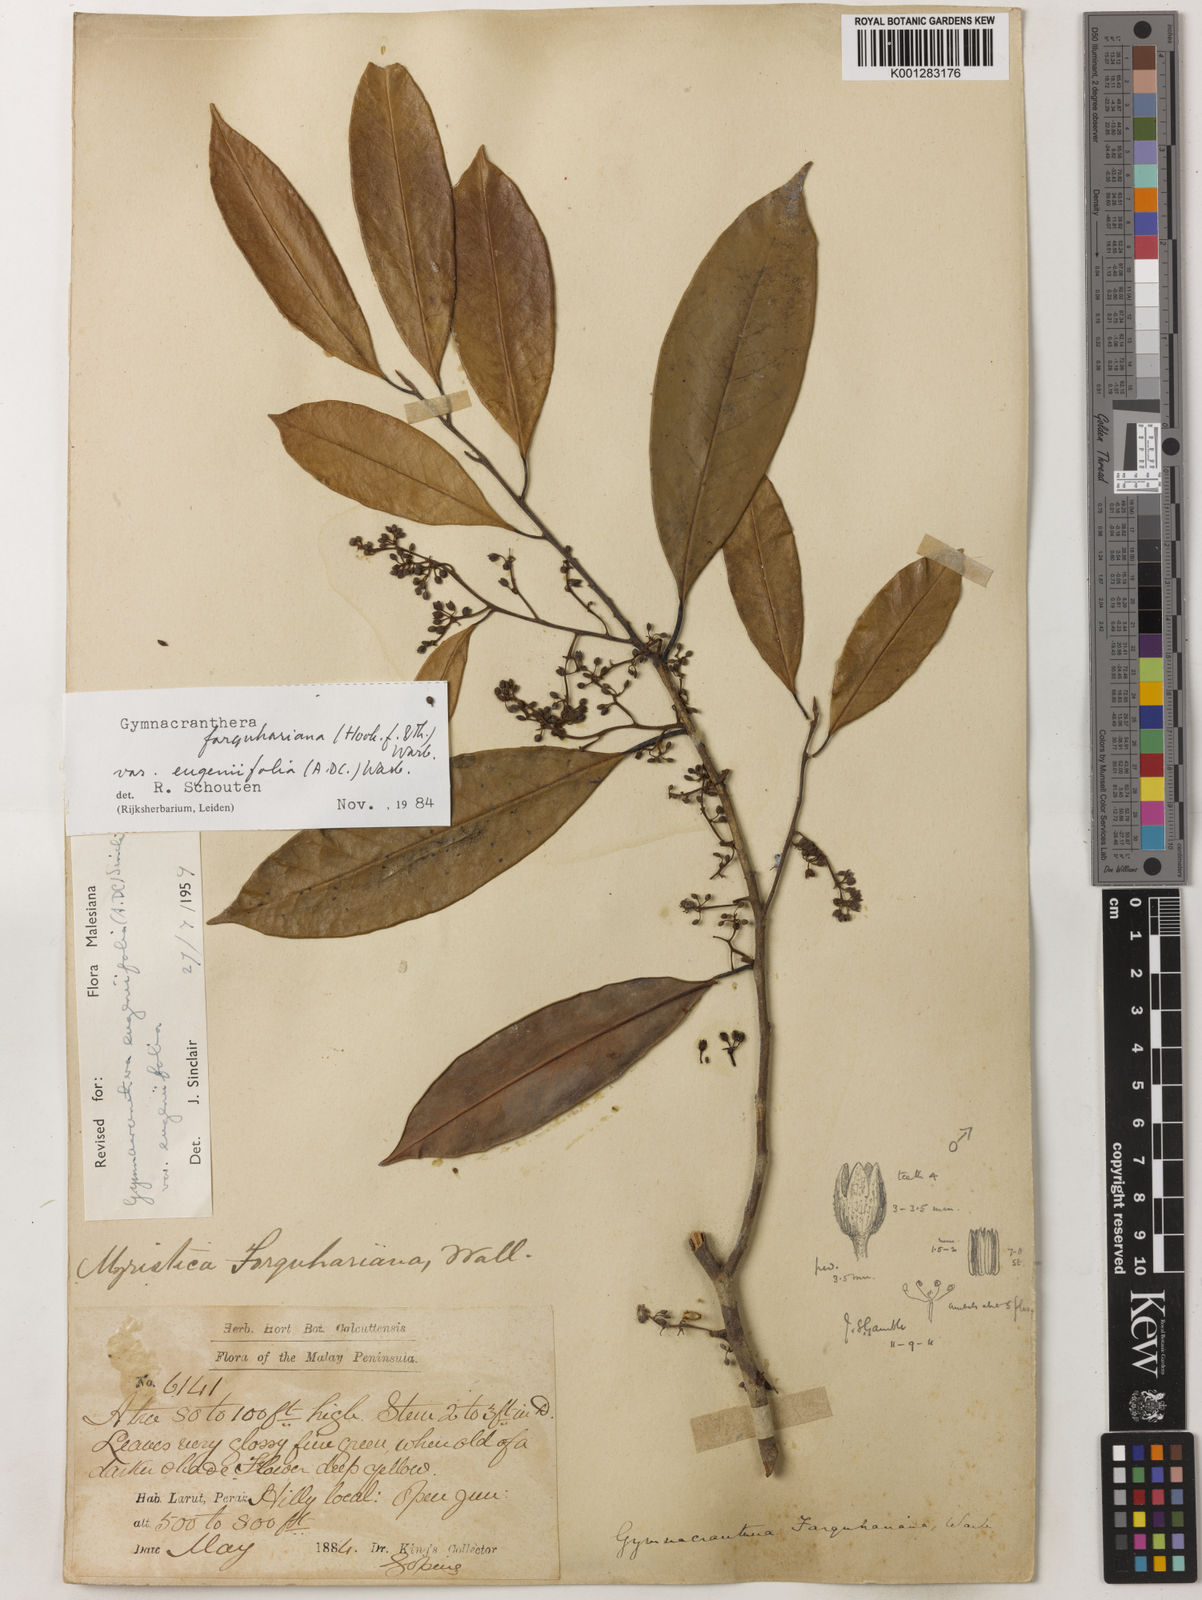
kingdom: Plantae
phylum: Tracheophyta
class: Magnoliopsida
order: Magnoliales
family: Myristicaceae
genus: Gymnacranthera
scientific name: Gymnacranthera farquhariana
